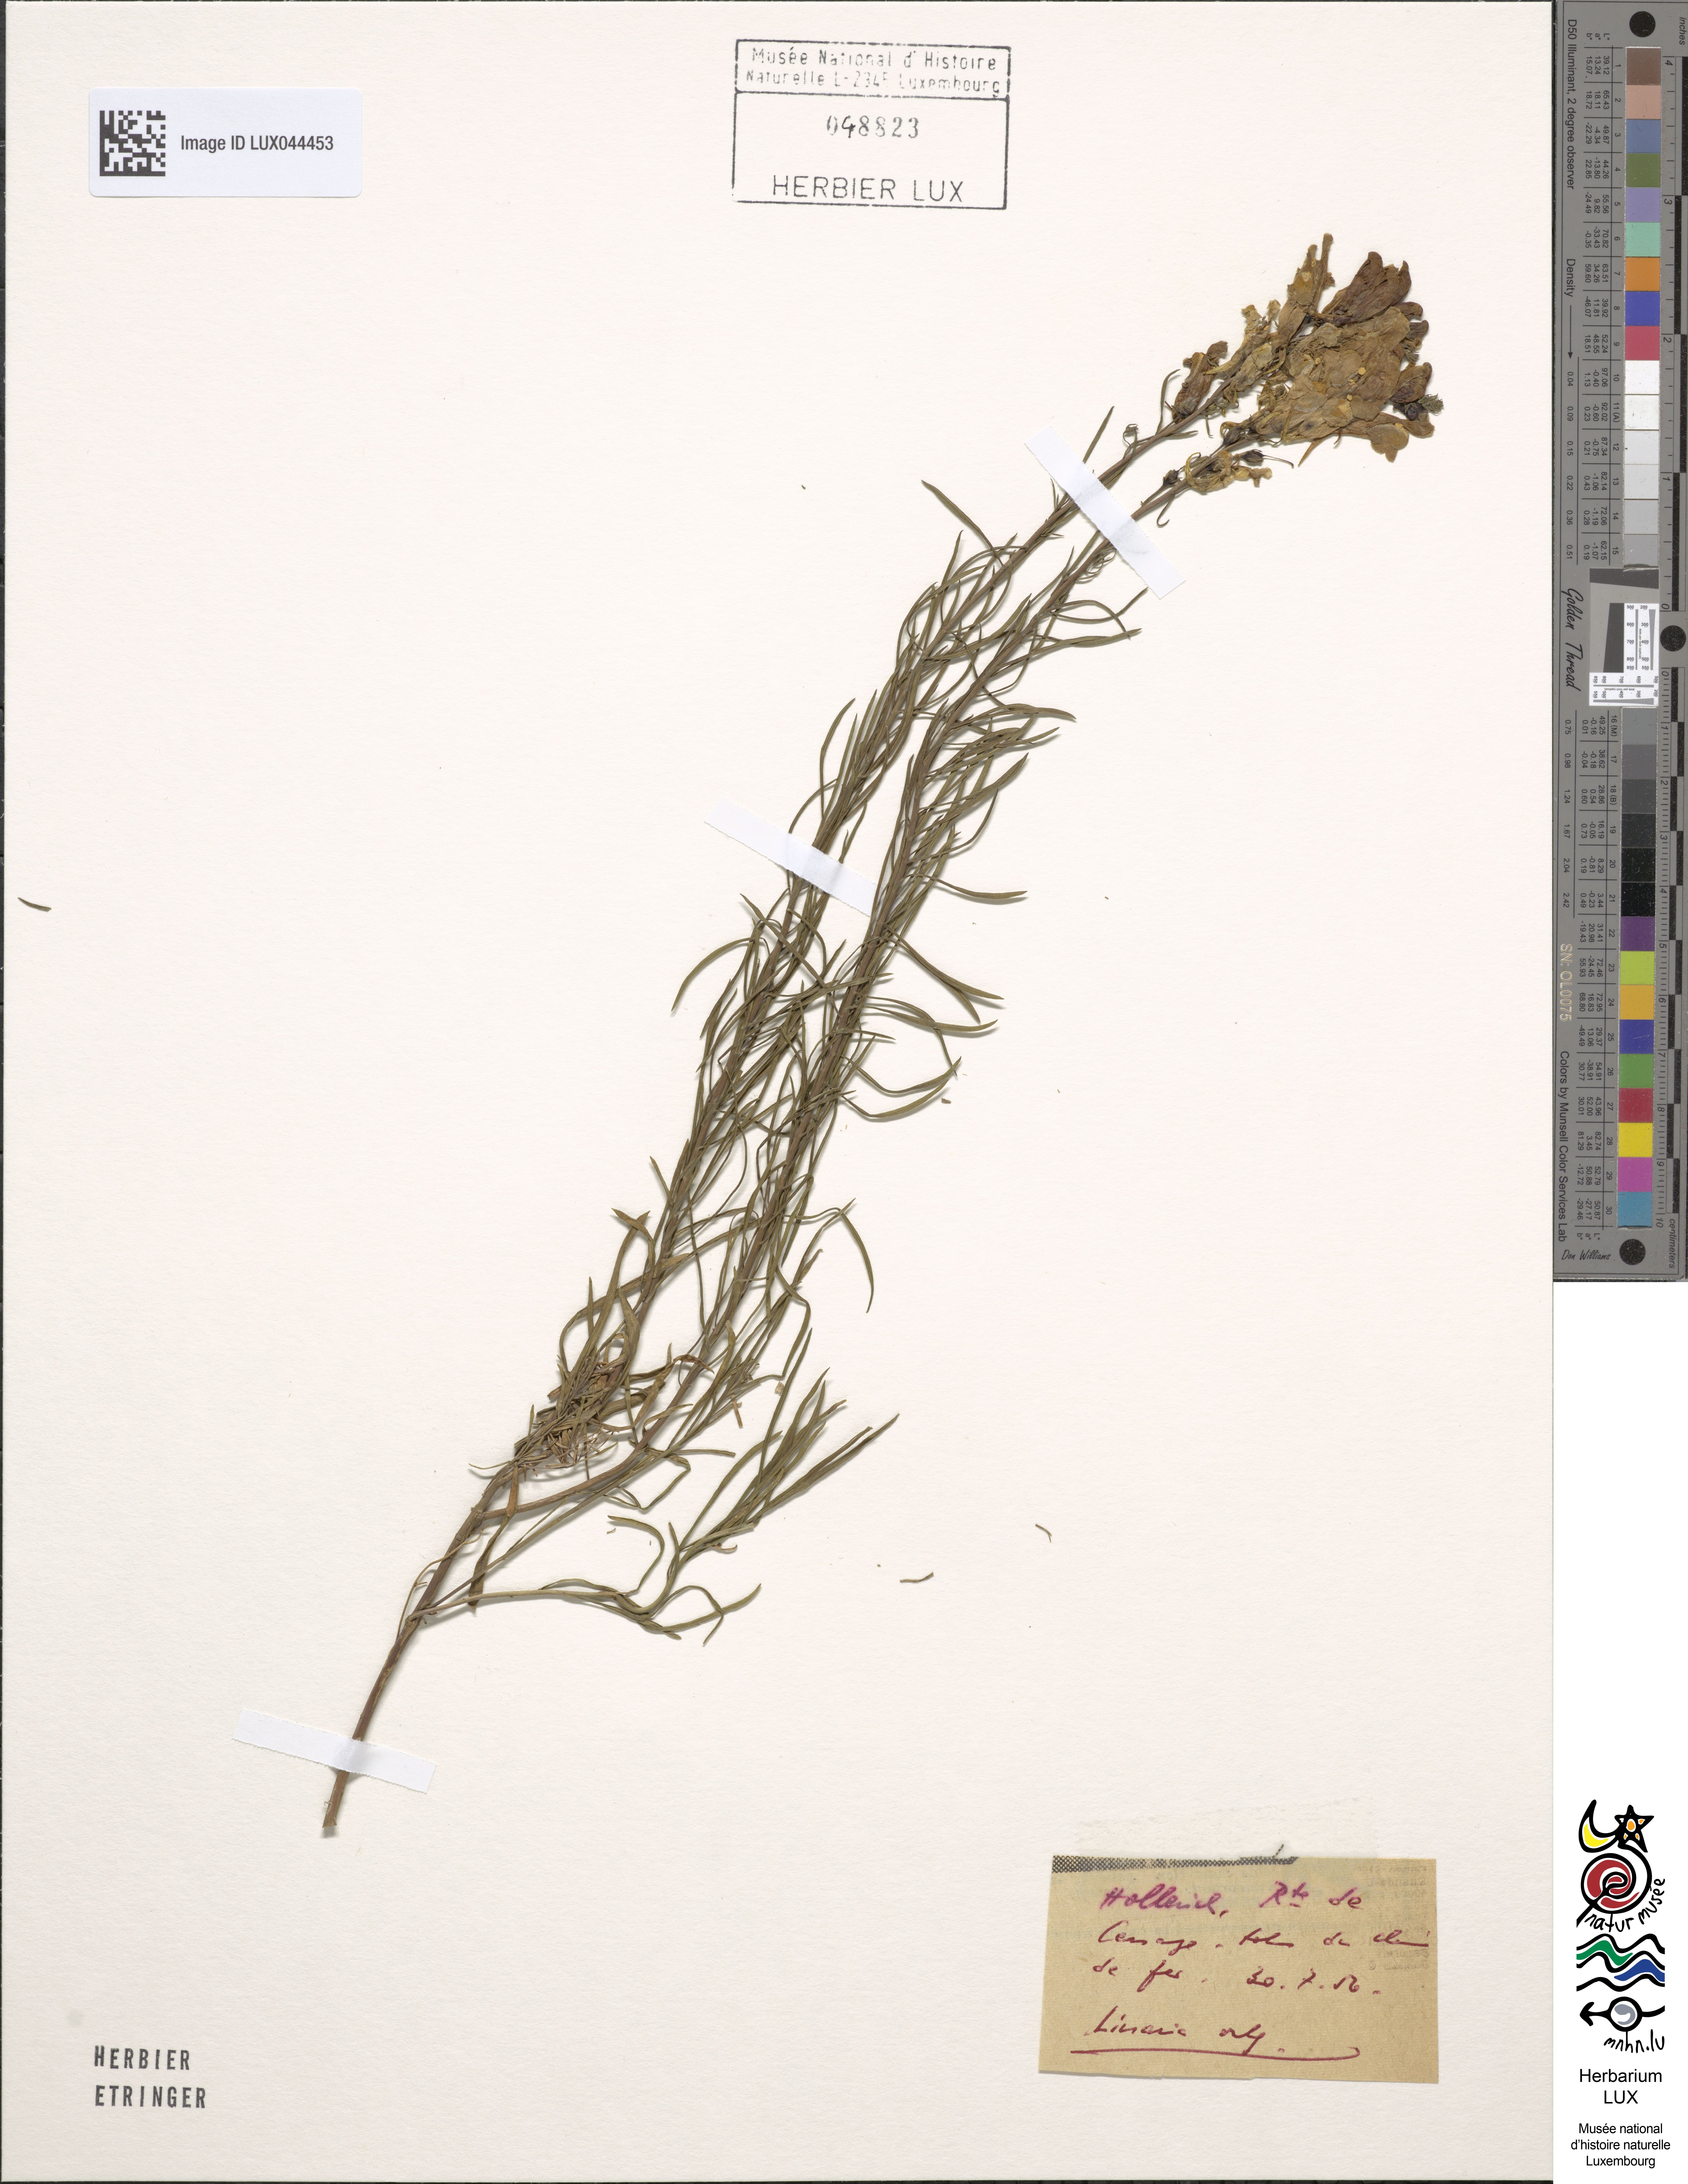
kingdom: Plantae
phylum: Tracheophyta
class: Magnoliopsida
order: Lamiales
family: Plantaginaceae
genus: Linaria
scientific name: Linaria vulgaris
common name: Butter and eggs
